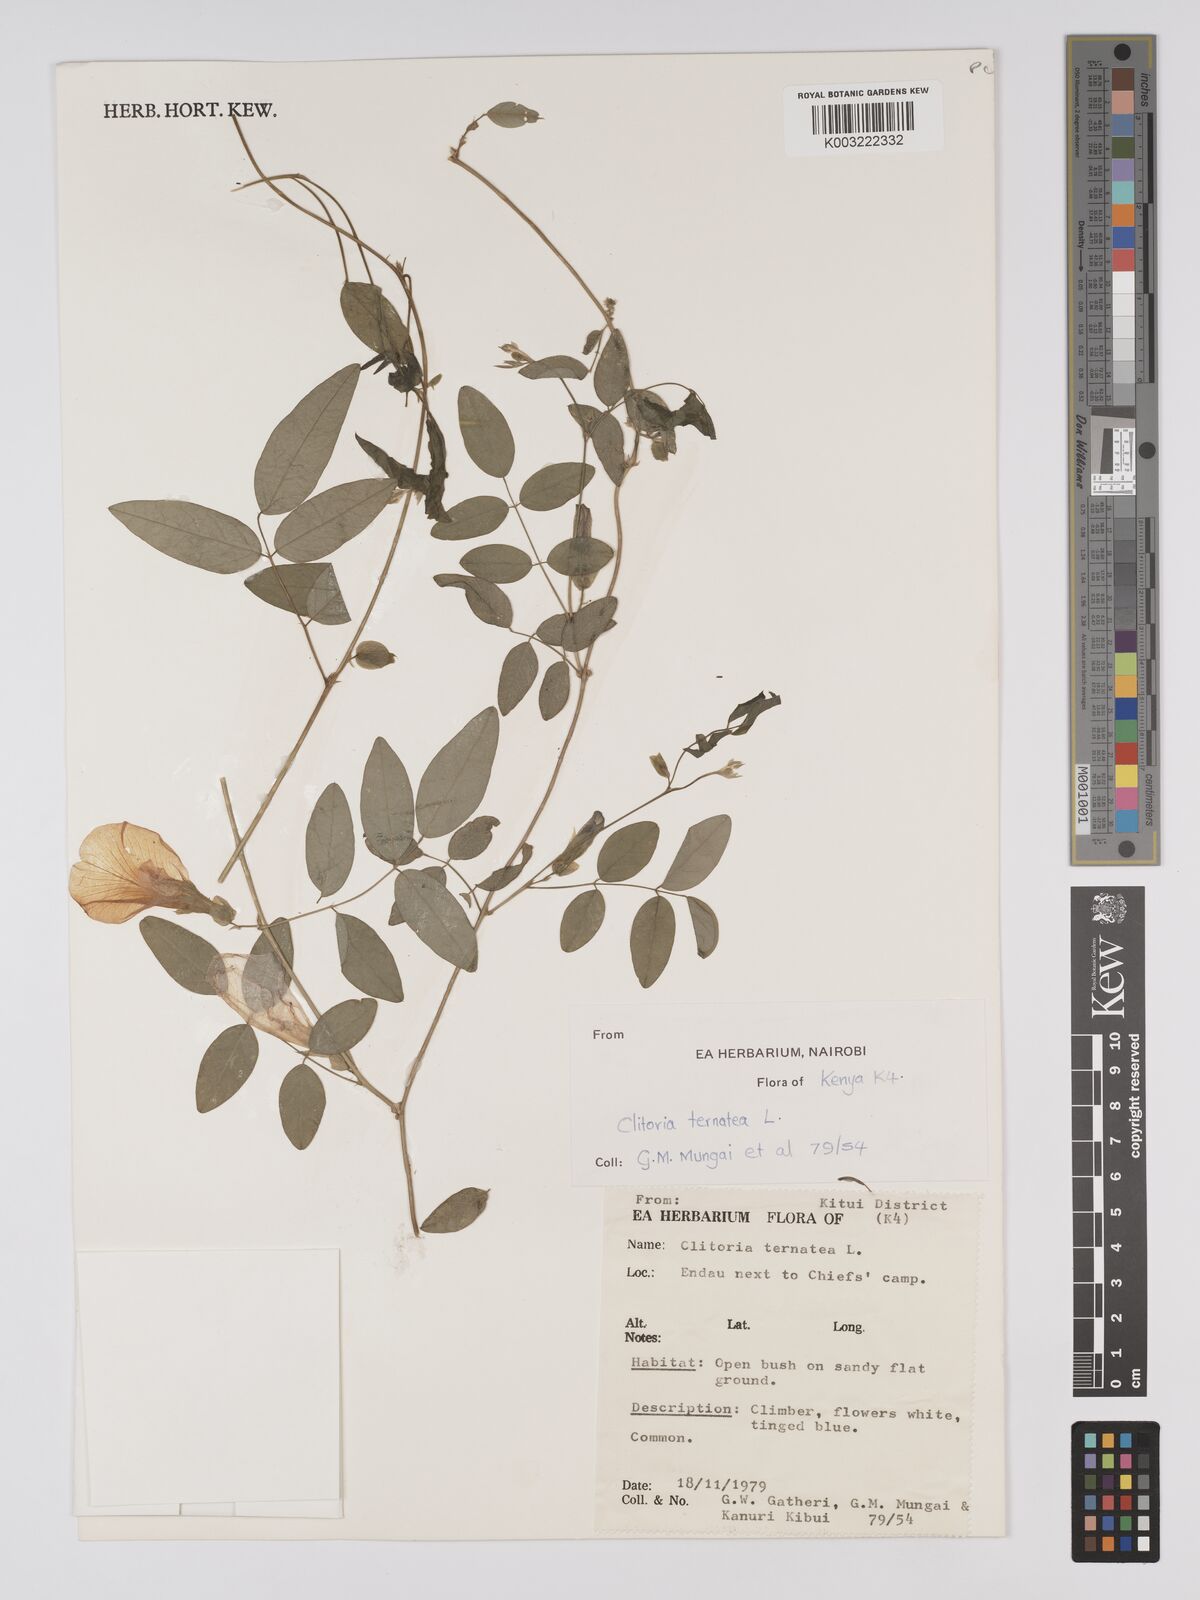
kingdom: Plantae
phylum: Tracheophyta
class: Magnoliopsida
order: Fabales
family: Fabaceae
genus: Clitoria
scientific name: Clitoria ternatea
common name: Asian pigeonwings
